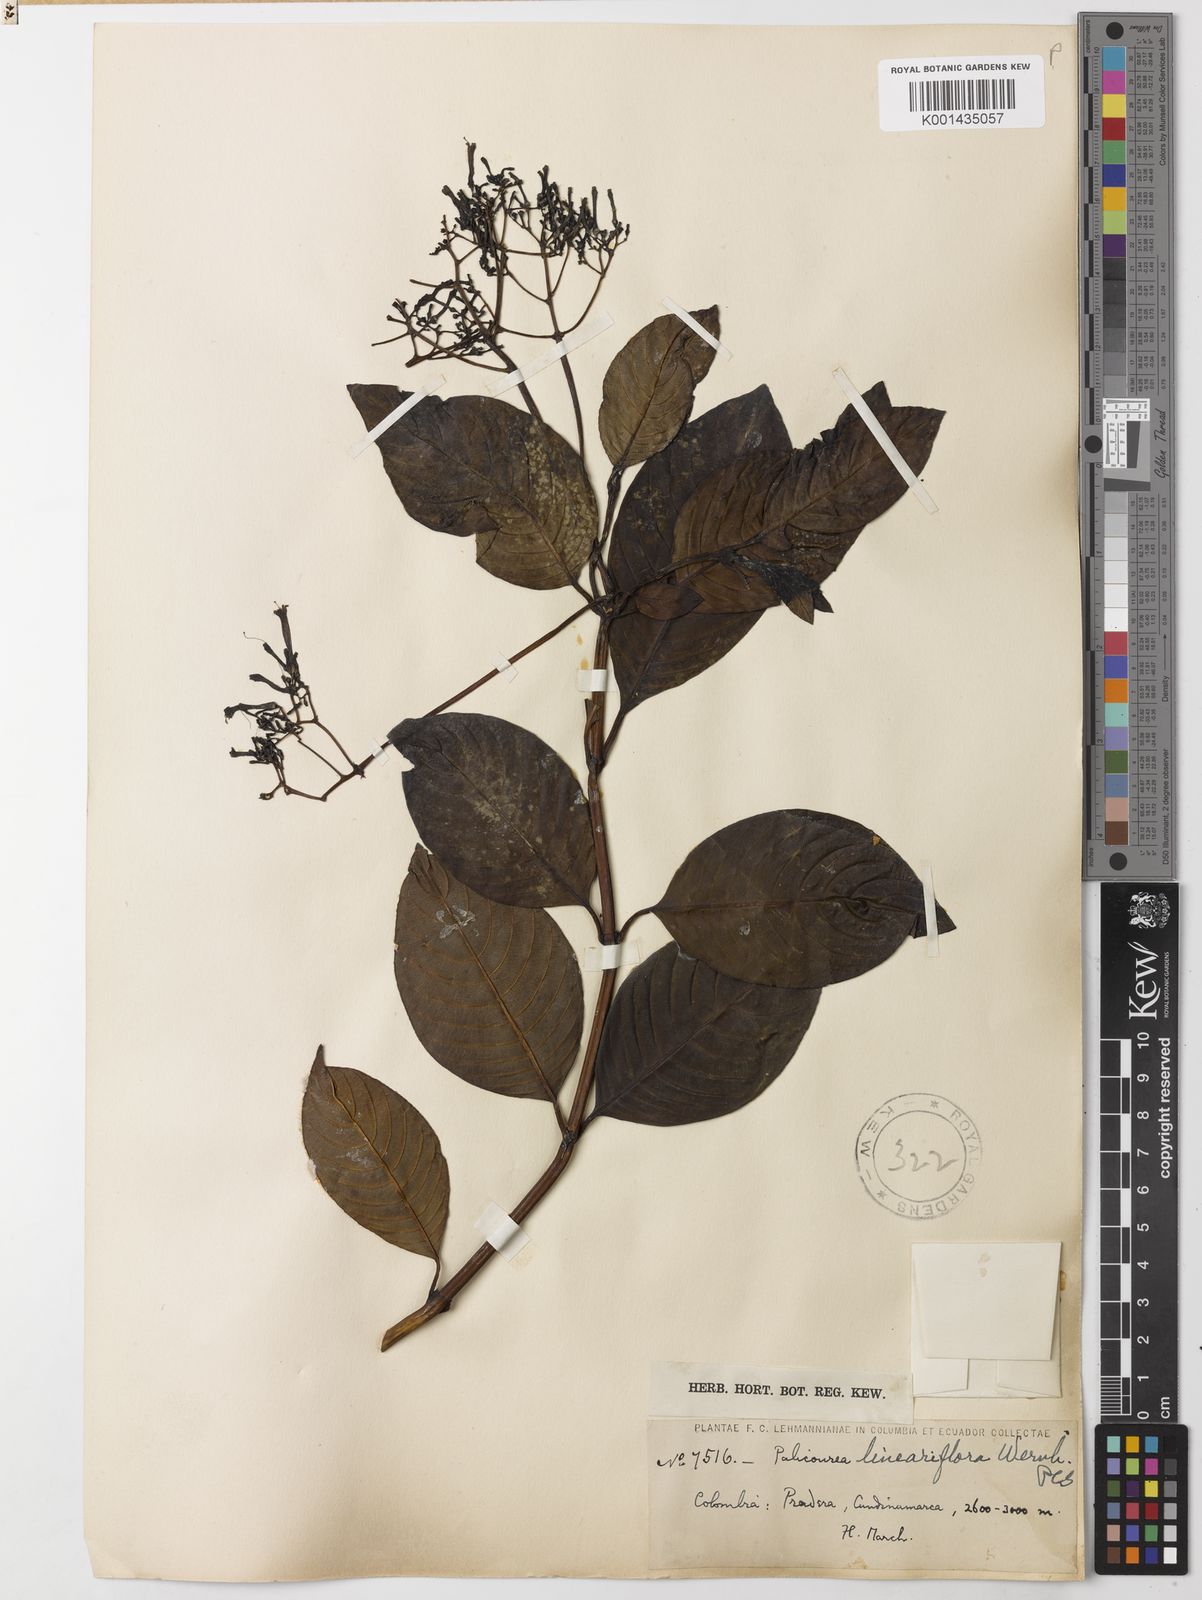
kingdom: Plantae
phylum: Tracheophyta
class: Magnoliopsida
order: Gentianales
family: Rubiaceae
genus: Palicourea
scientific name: Palicourea lineariflora
